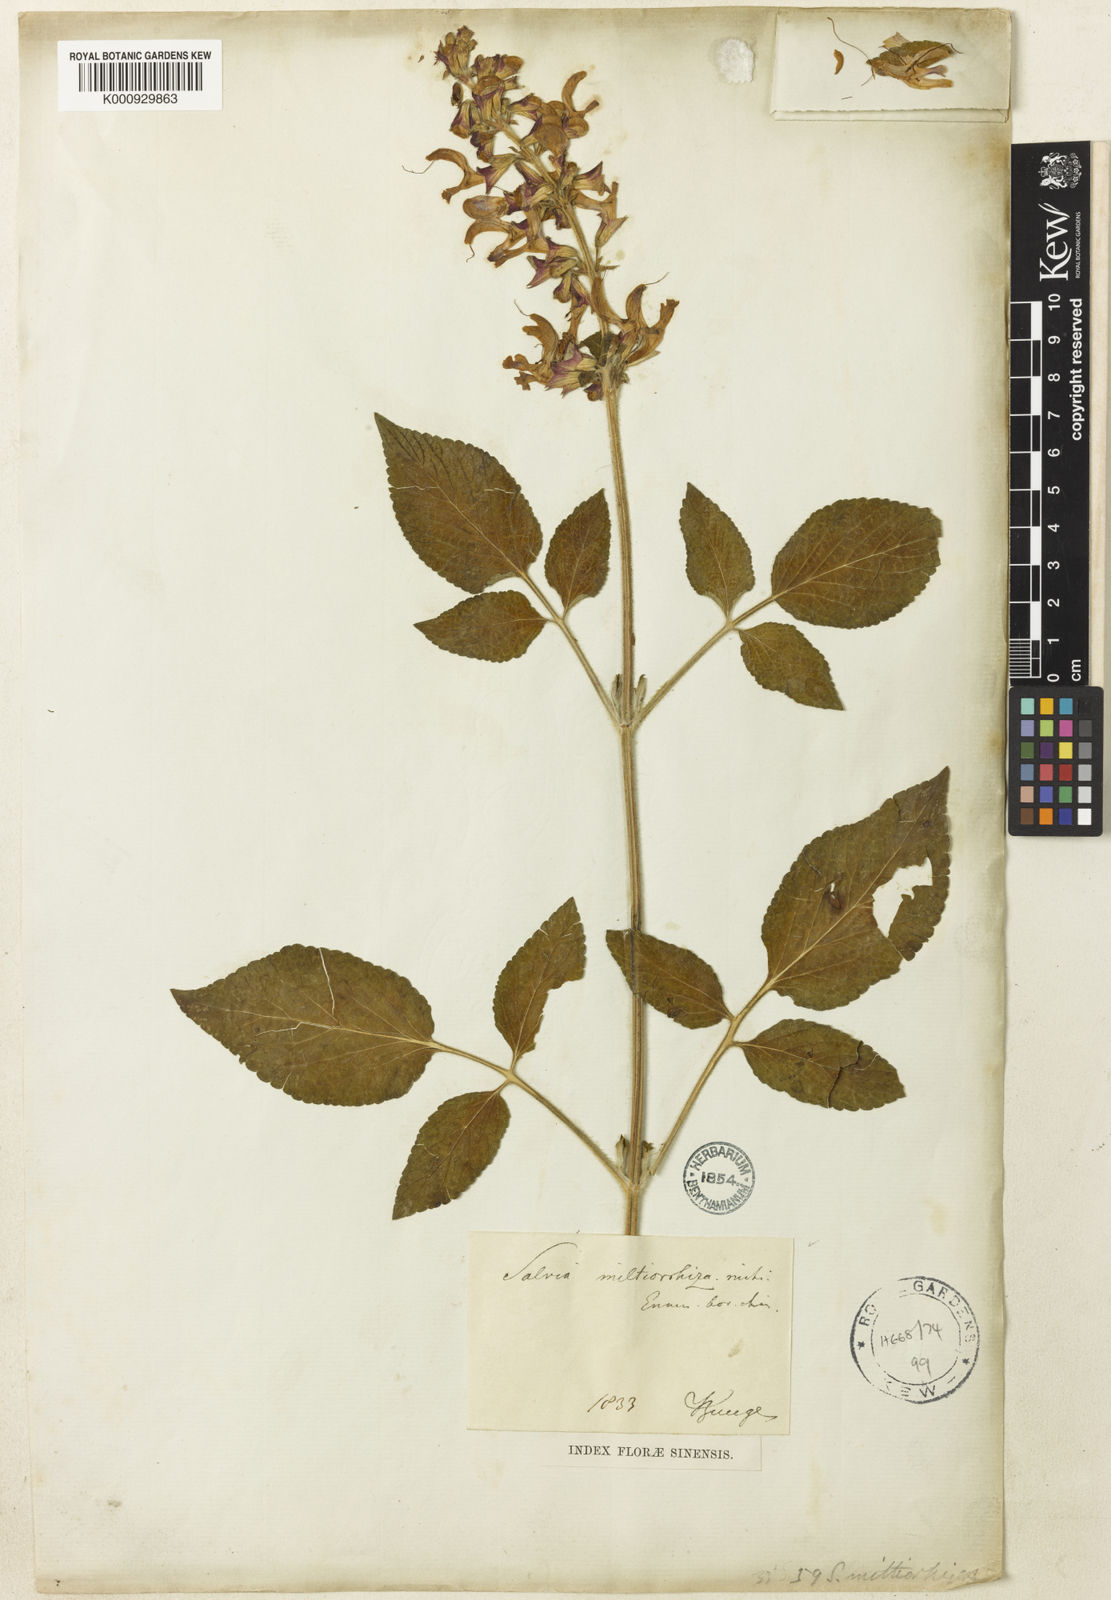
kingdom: Plantae
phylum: Tracheophyta
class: Magnoliopsida
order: Lamiales
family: Lamiaceae
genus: Salvia
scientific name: Salvia miltiorrhiza
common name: Redroot sage
